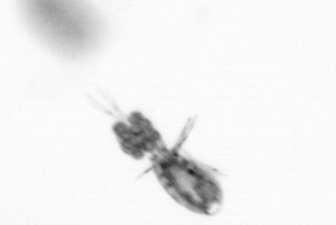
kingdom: Animalia
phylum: Arthropoda
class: Copepoda
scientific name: Copepoda
